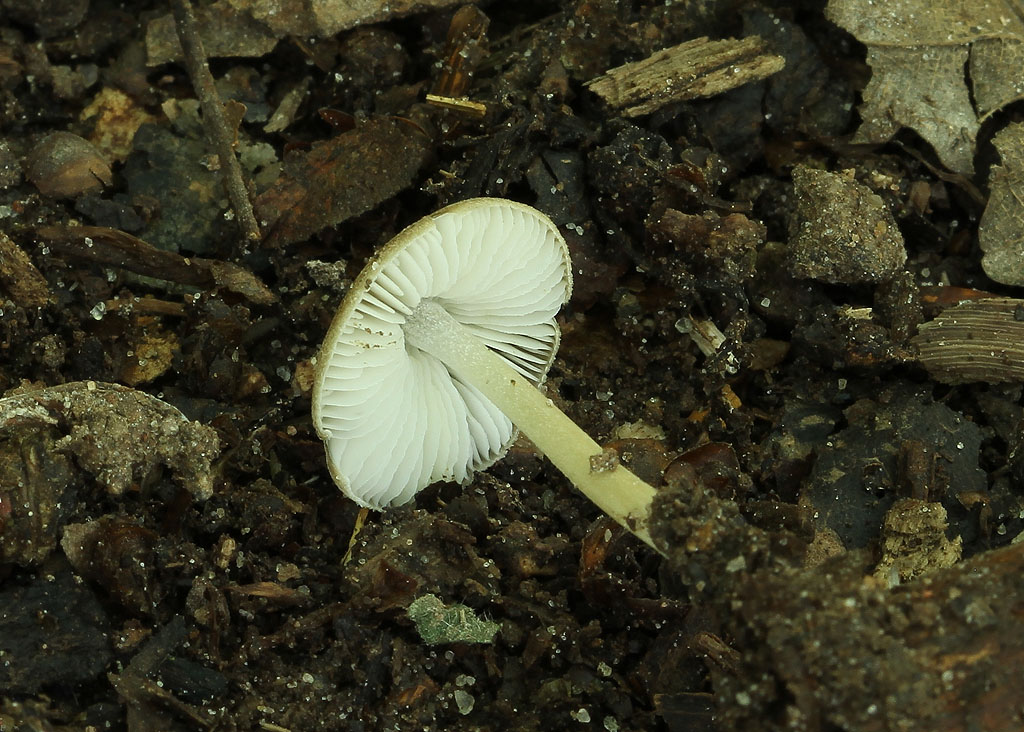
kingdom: Fungi
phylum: Basidiomycota
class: Agaricomycetes
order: Agaricales
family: Porotheleaceae
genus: Hydropodia
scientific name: Hydropodia subalpina
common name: vår-fnugfod
